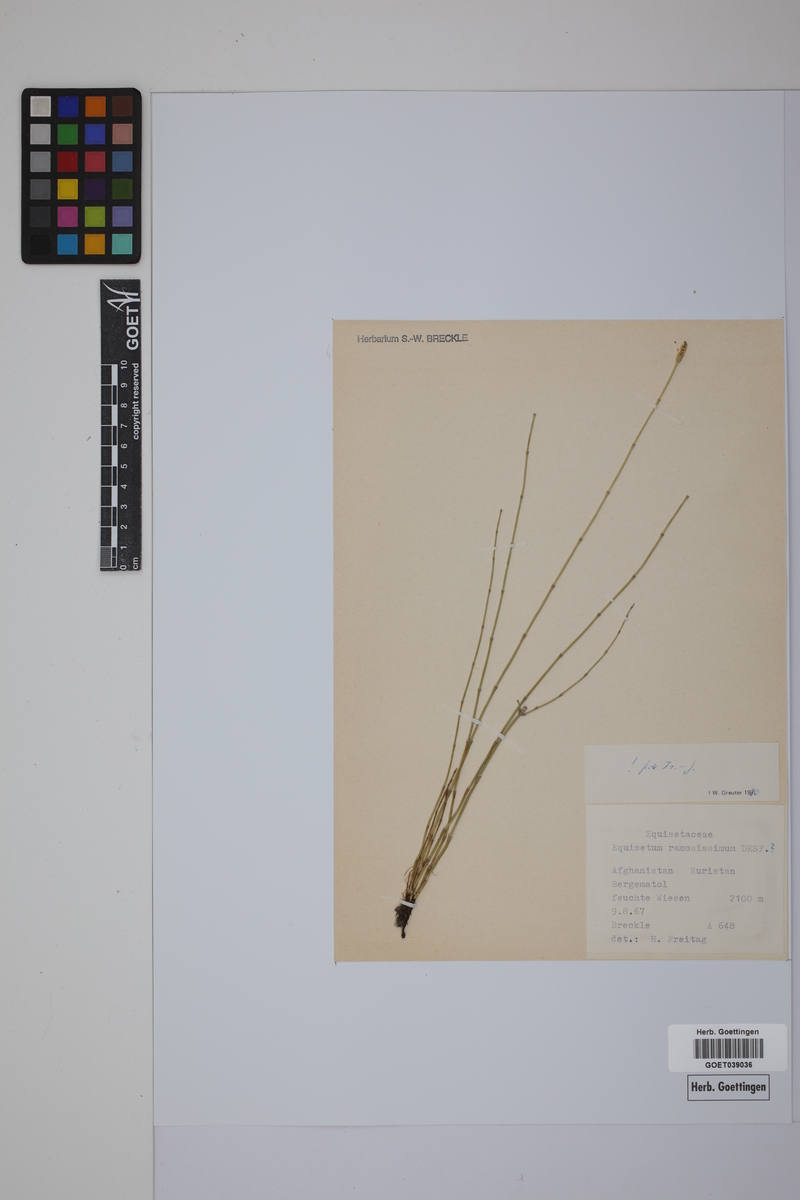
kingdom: Plantae
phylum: Tracheophyta
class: Polypodiopsida
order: Equisetales
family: Equisetaceae
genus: Equisetum
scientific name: Equisetum giganteum
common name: Giant horsetail
